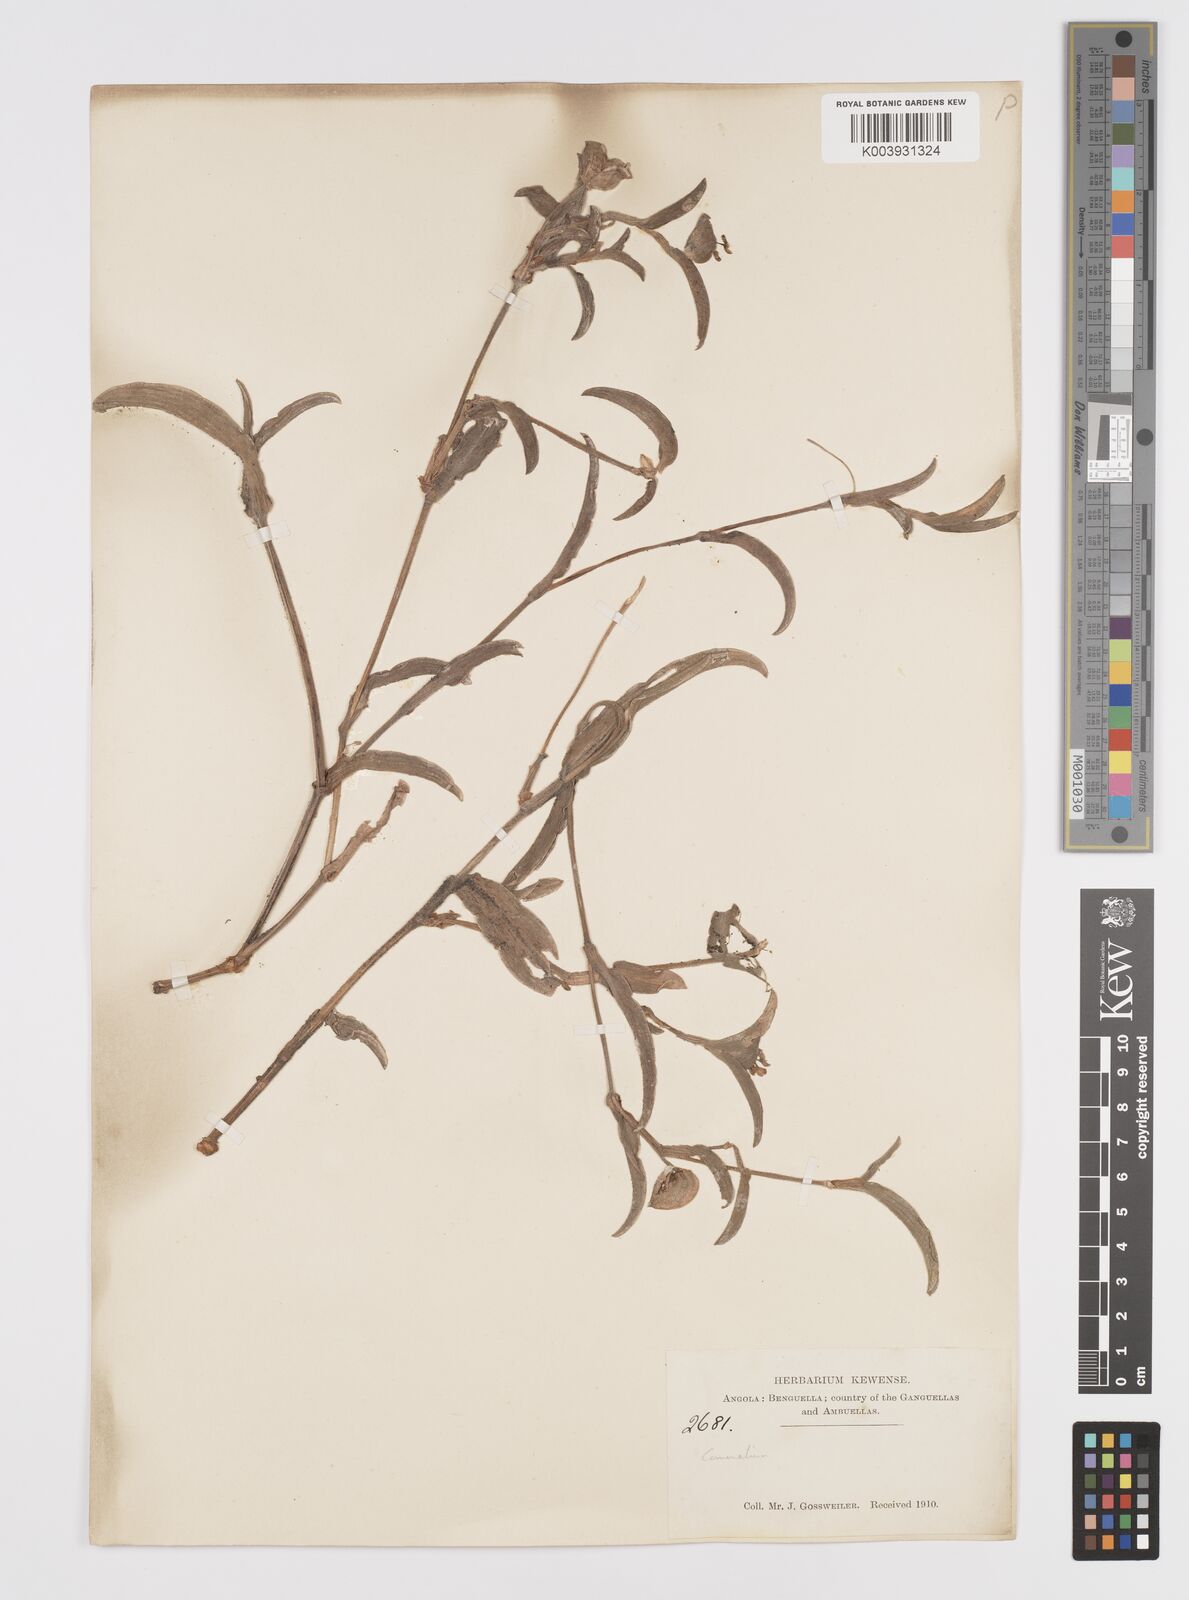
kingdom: Plantae
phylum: Tracheophyta
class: Liliopsida
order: Commelinales
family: Commelinaceae
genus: Commelina
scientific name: Commelina
